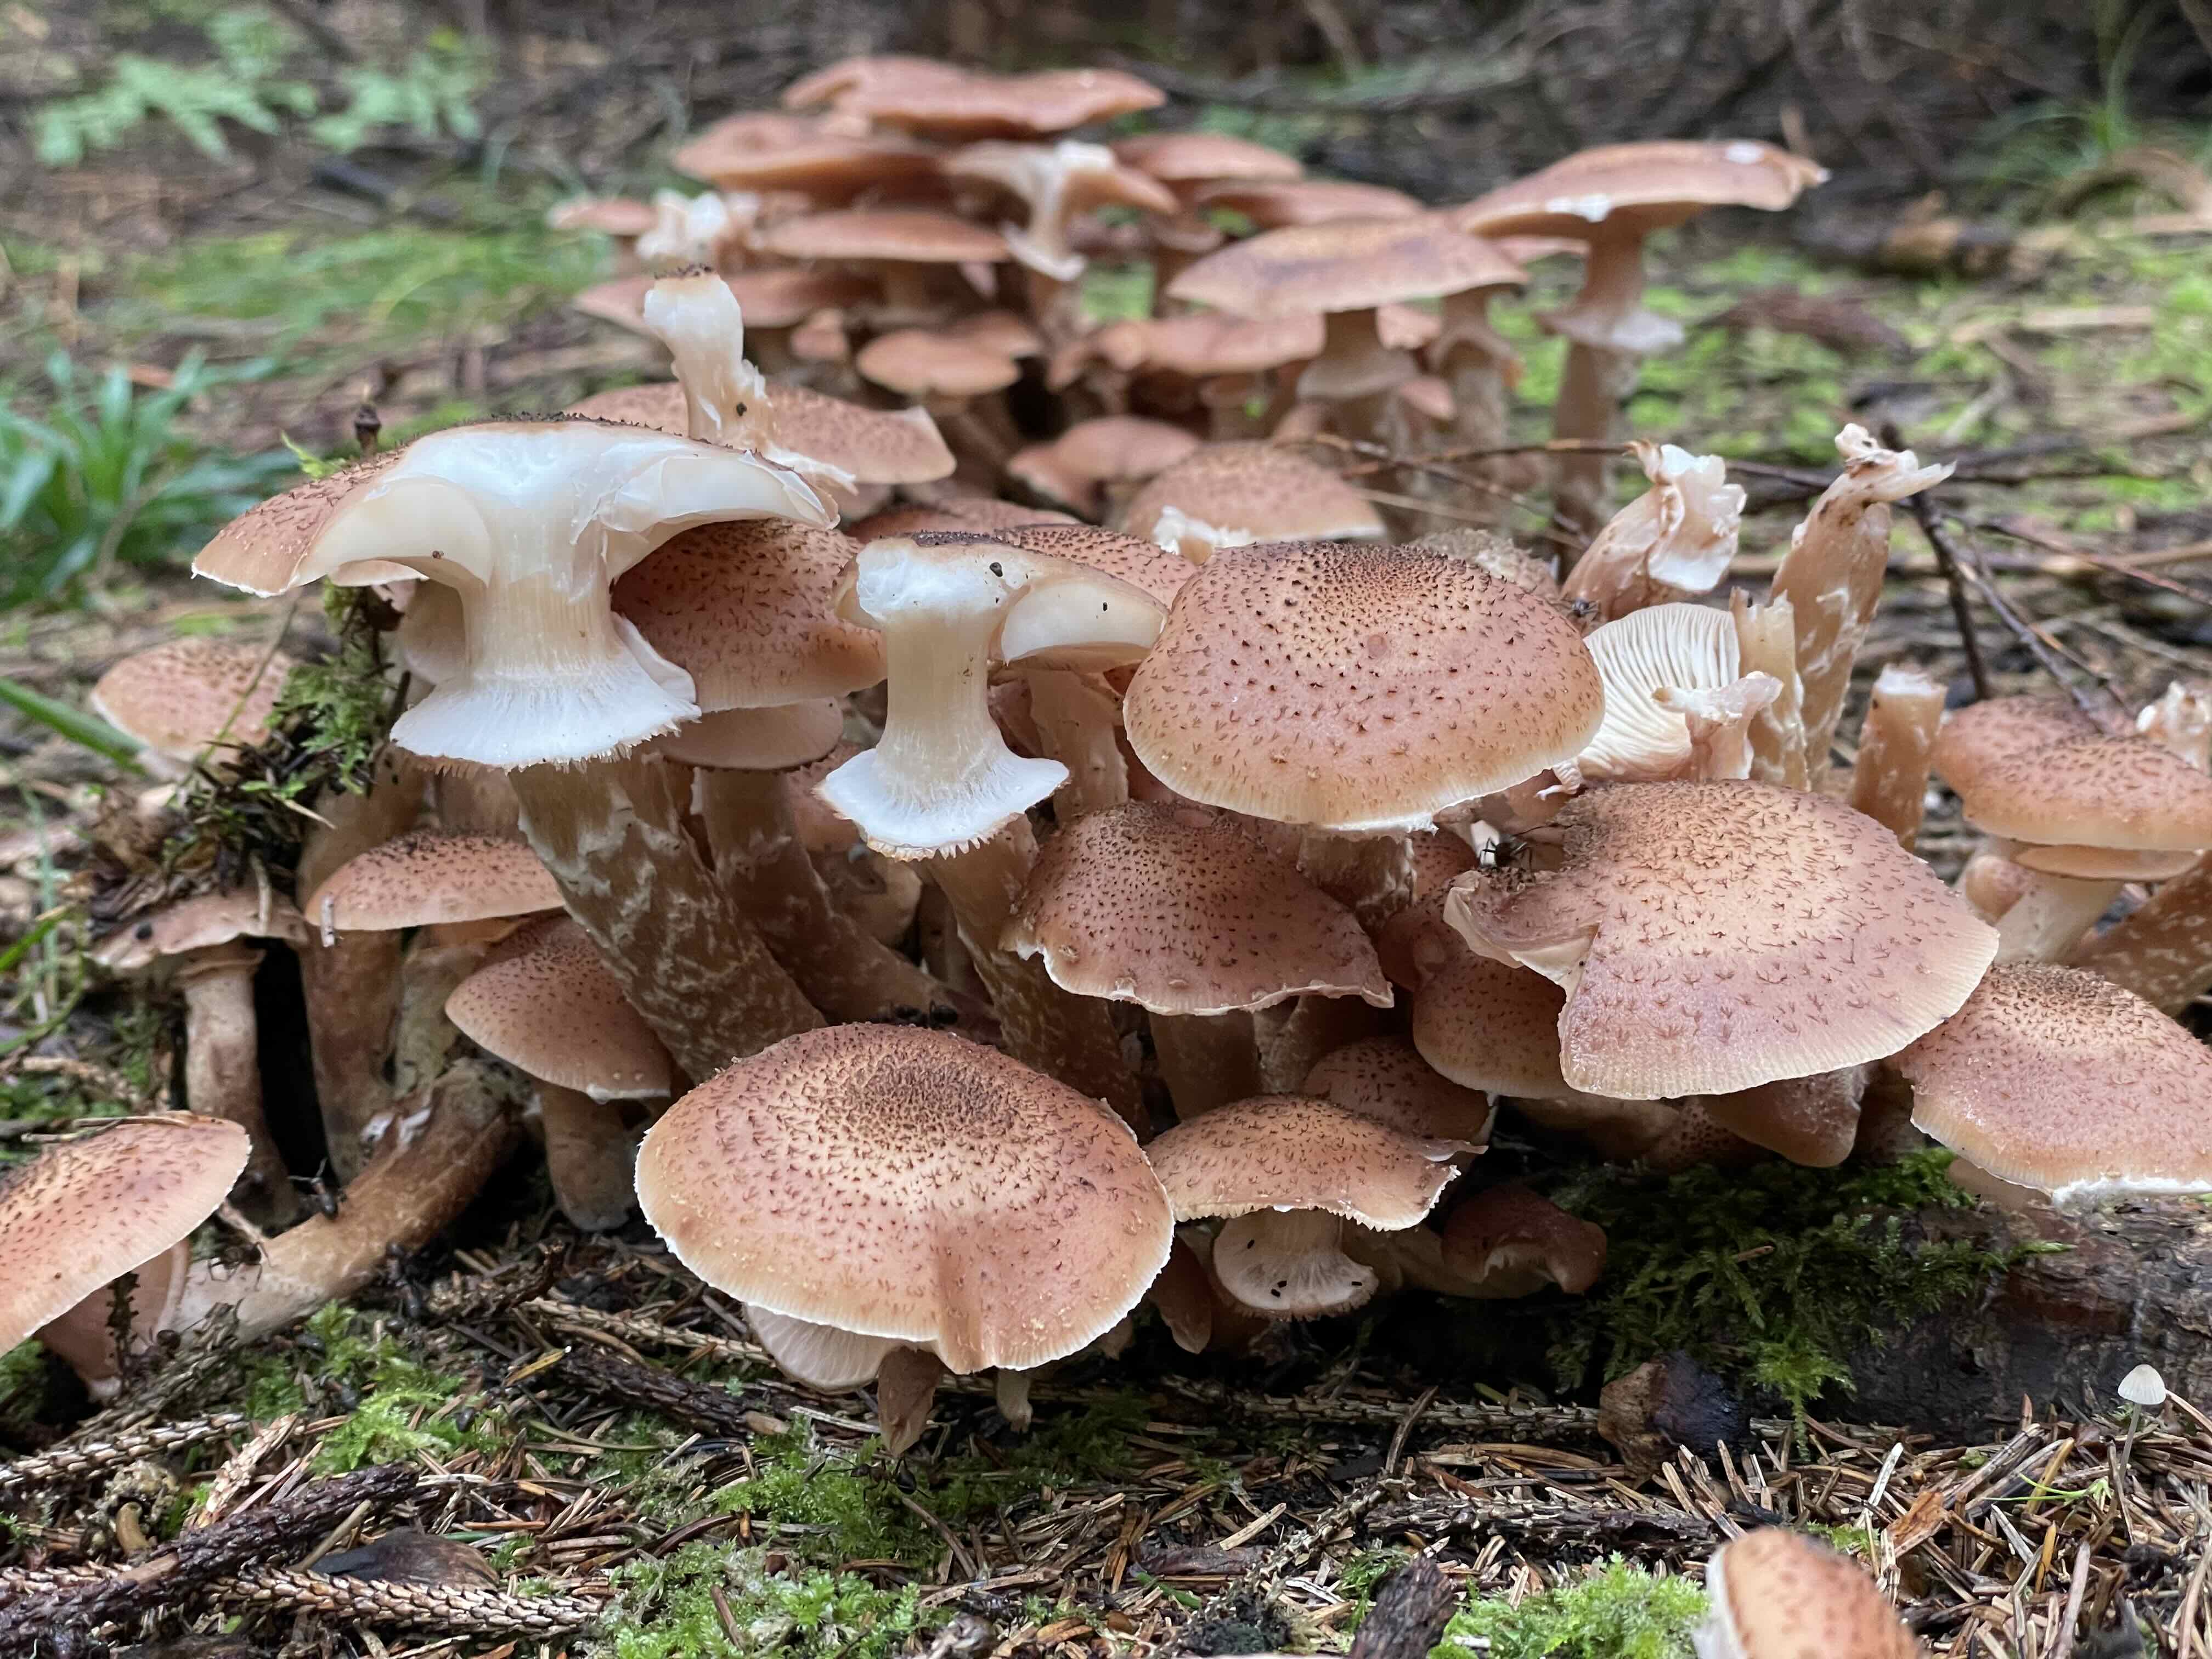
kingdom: Fungi
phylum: Basidiomycota
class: Agaricomycetes
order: Agaricales
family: Physalacriaceae
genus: Armillaria
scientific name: Armillaria ostoyae
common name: mørk honningsvamp
